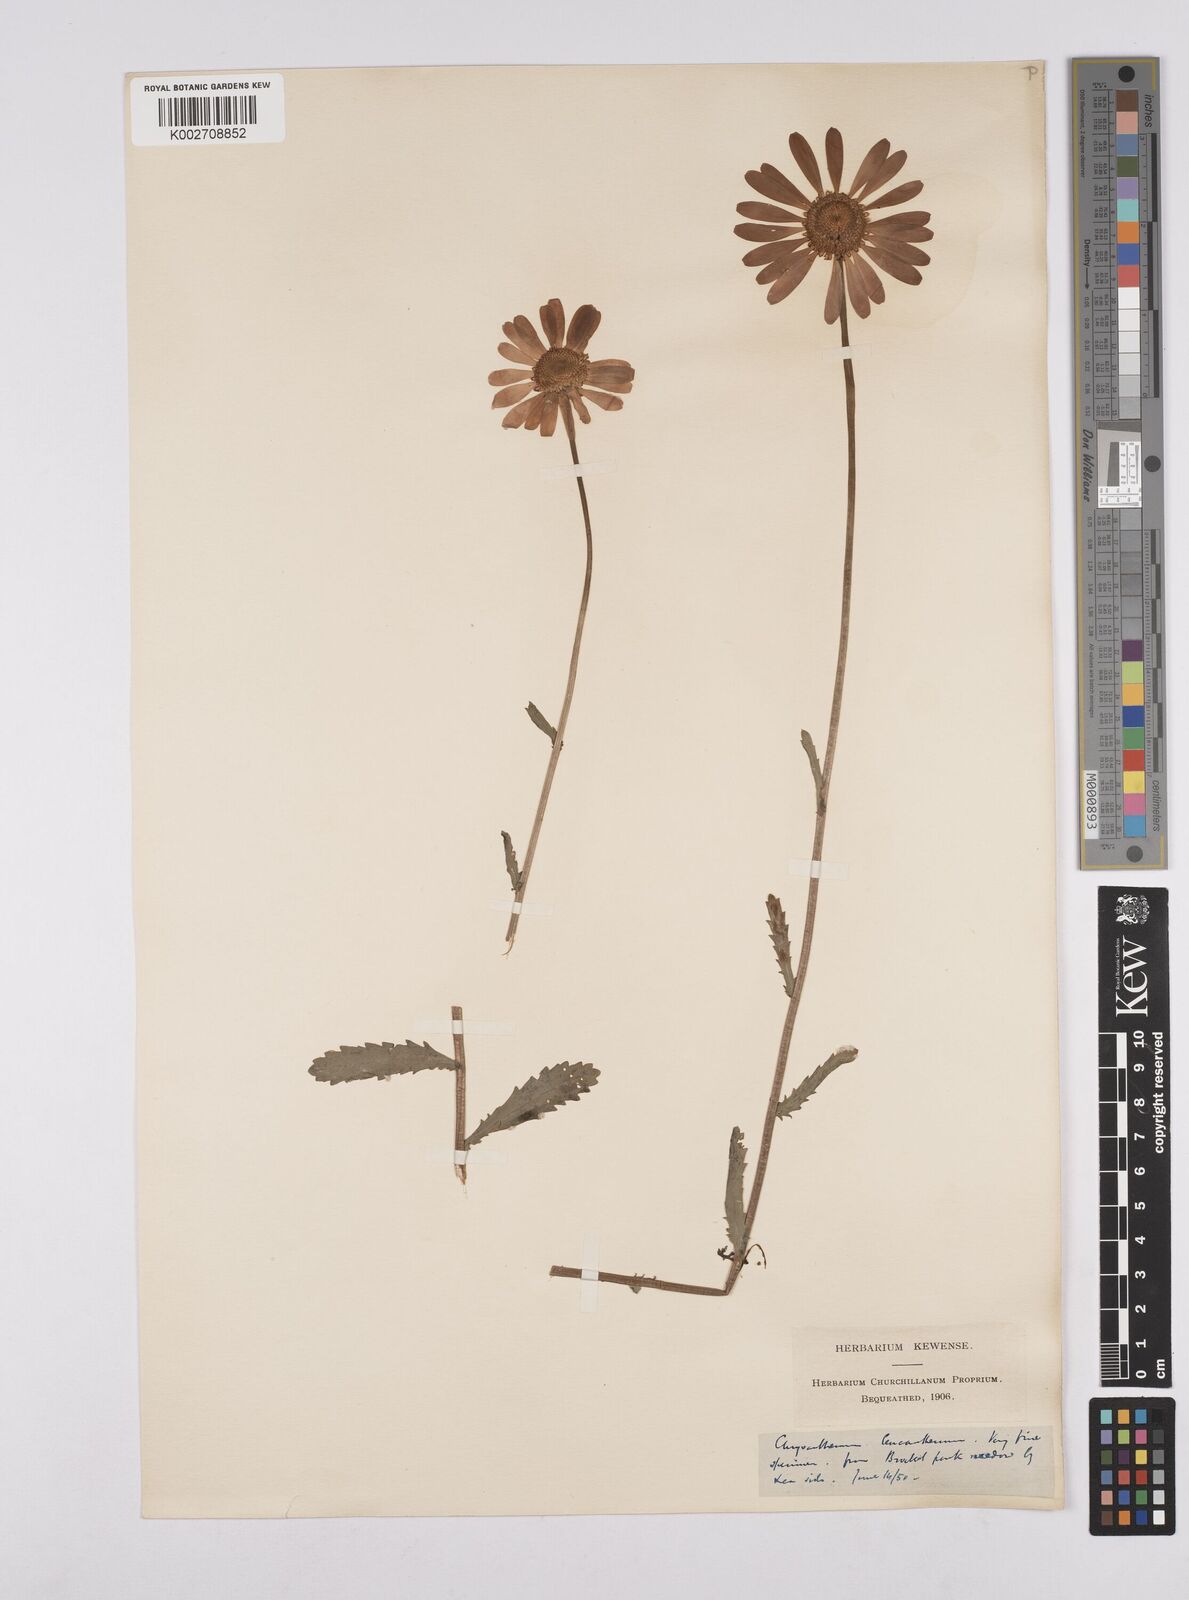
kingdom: Plantae
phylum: Tracheophyta
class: Magnoliopsida
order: Asterales
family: Asteraceae
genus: Leucanthemum
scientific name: Leucanthemum
